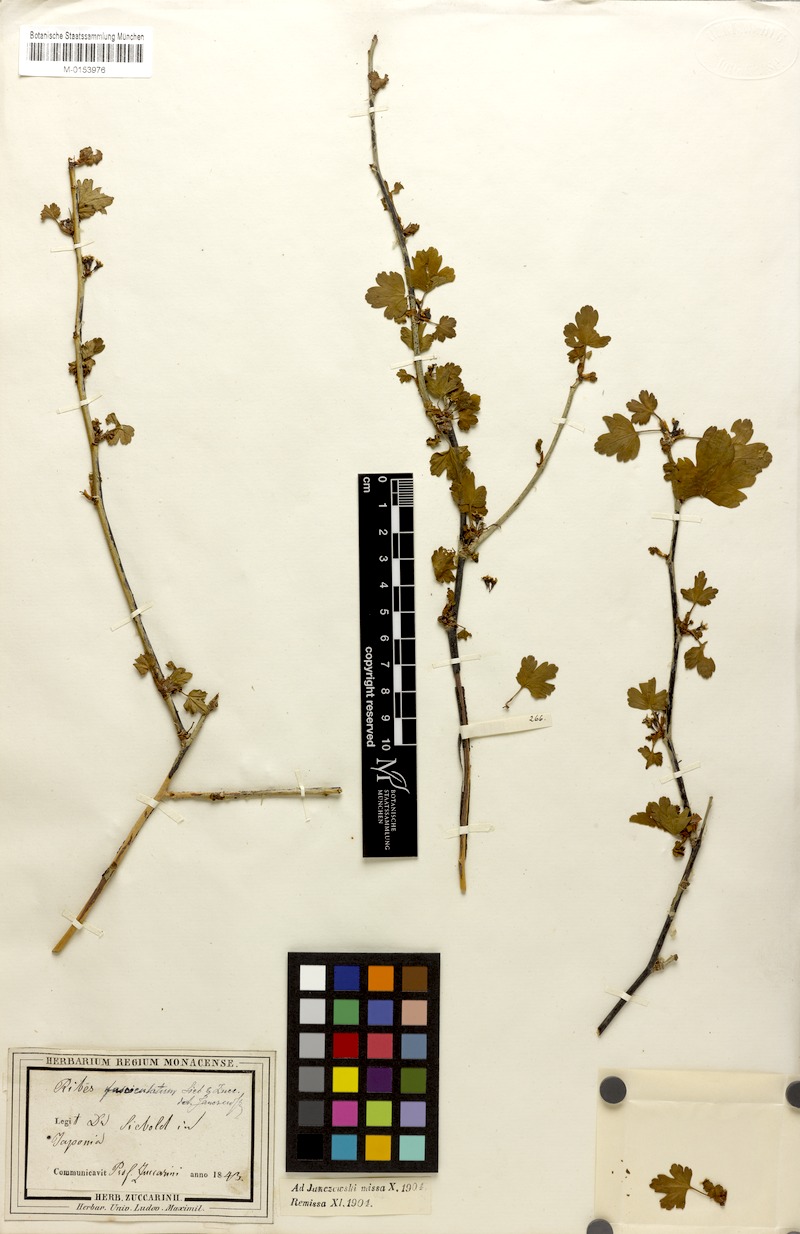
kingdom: Plantae
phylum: Tracheophyta
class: Magnoliopsida
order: Saxifragales
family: Grossulariaceae
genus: Ribes
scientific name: Ribes fasciculatum
